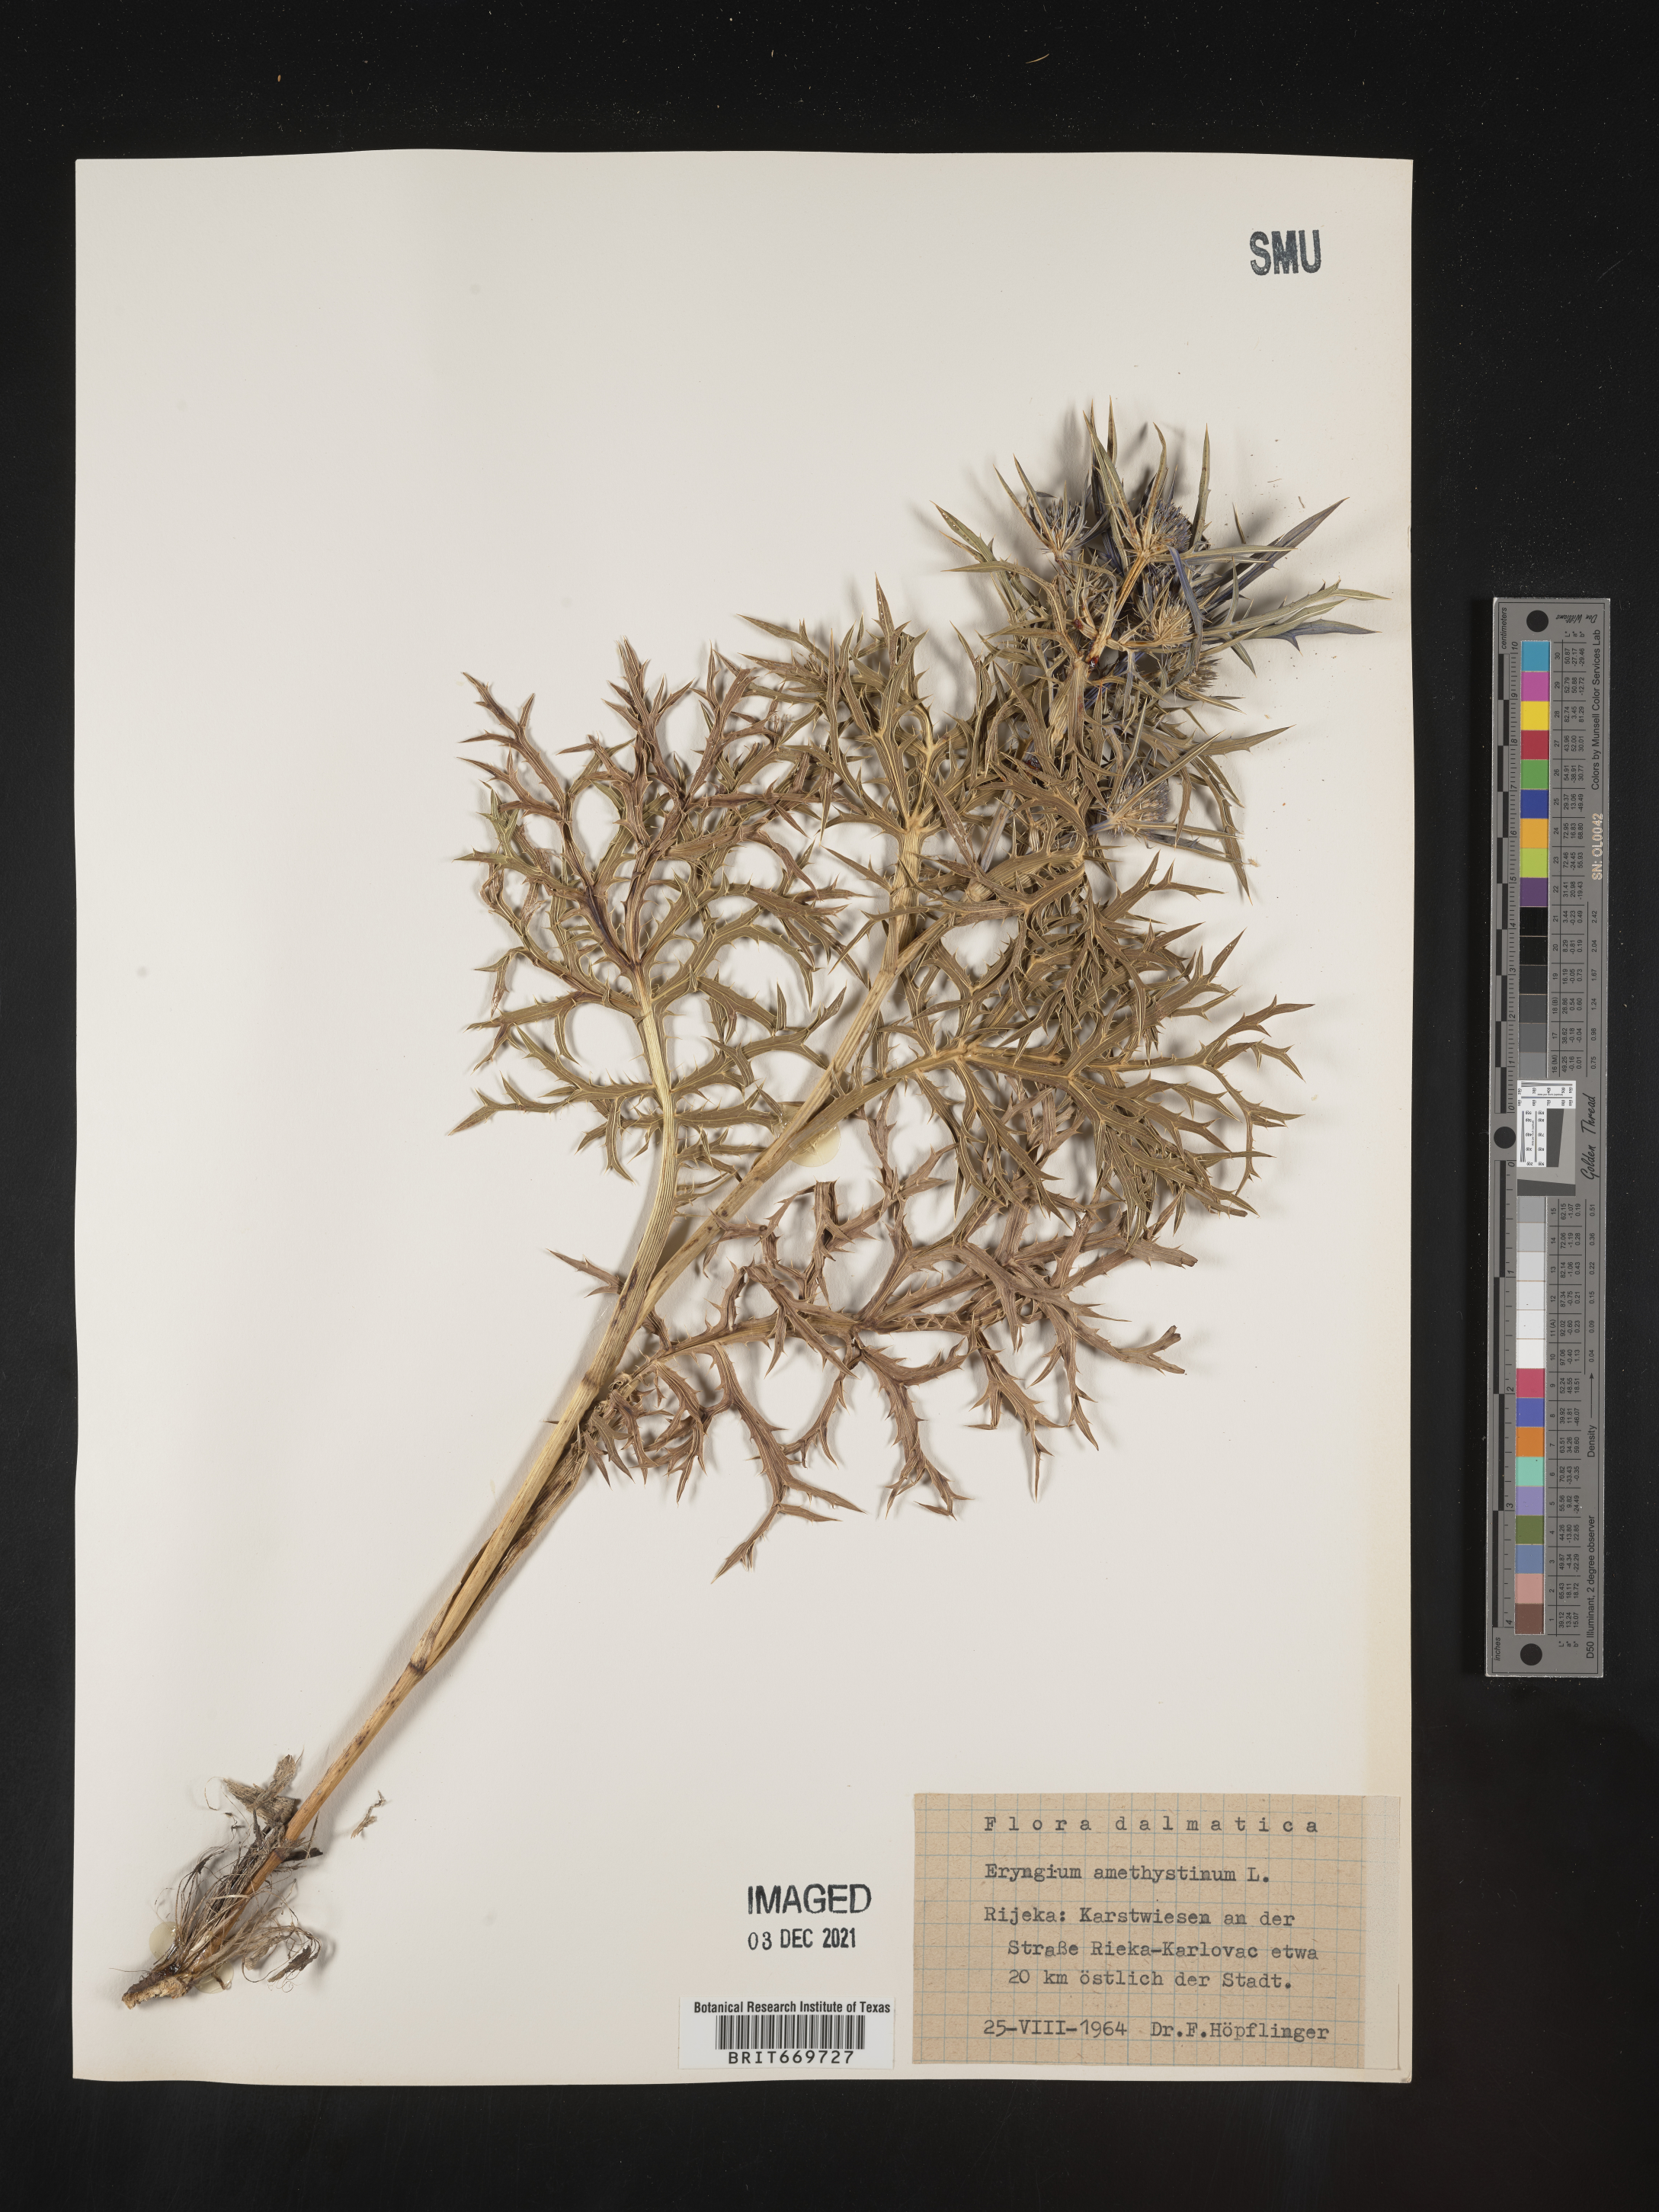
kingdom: Plantae
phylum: Tracheophyta
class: Magnoliopsida
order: Apiales
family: Apiaceae
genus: Eryngium
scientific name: Eryngium
